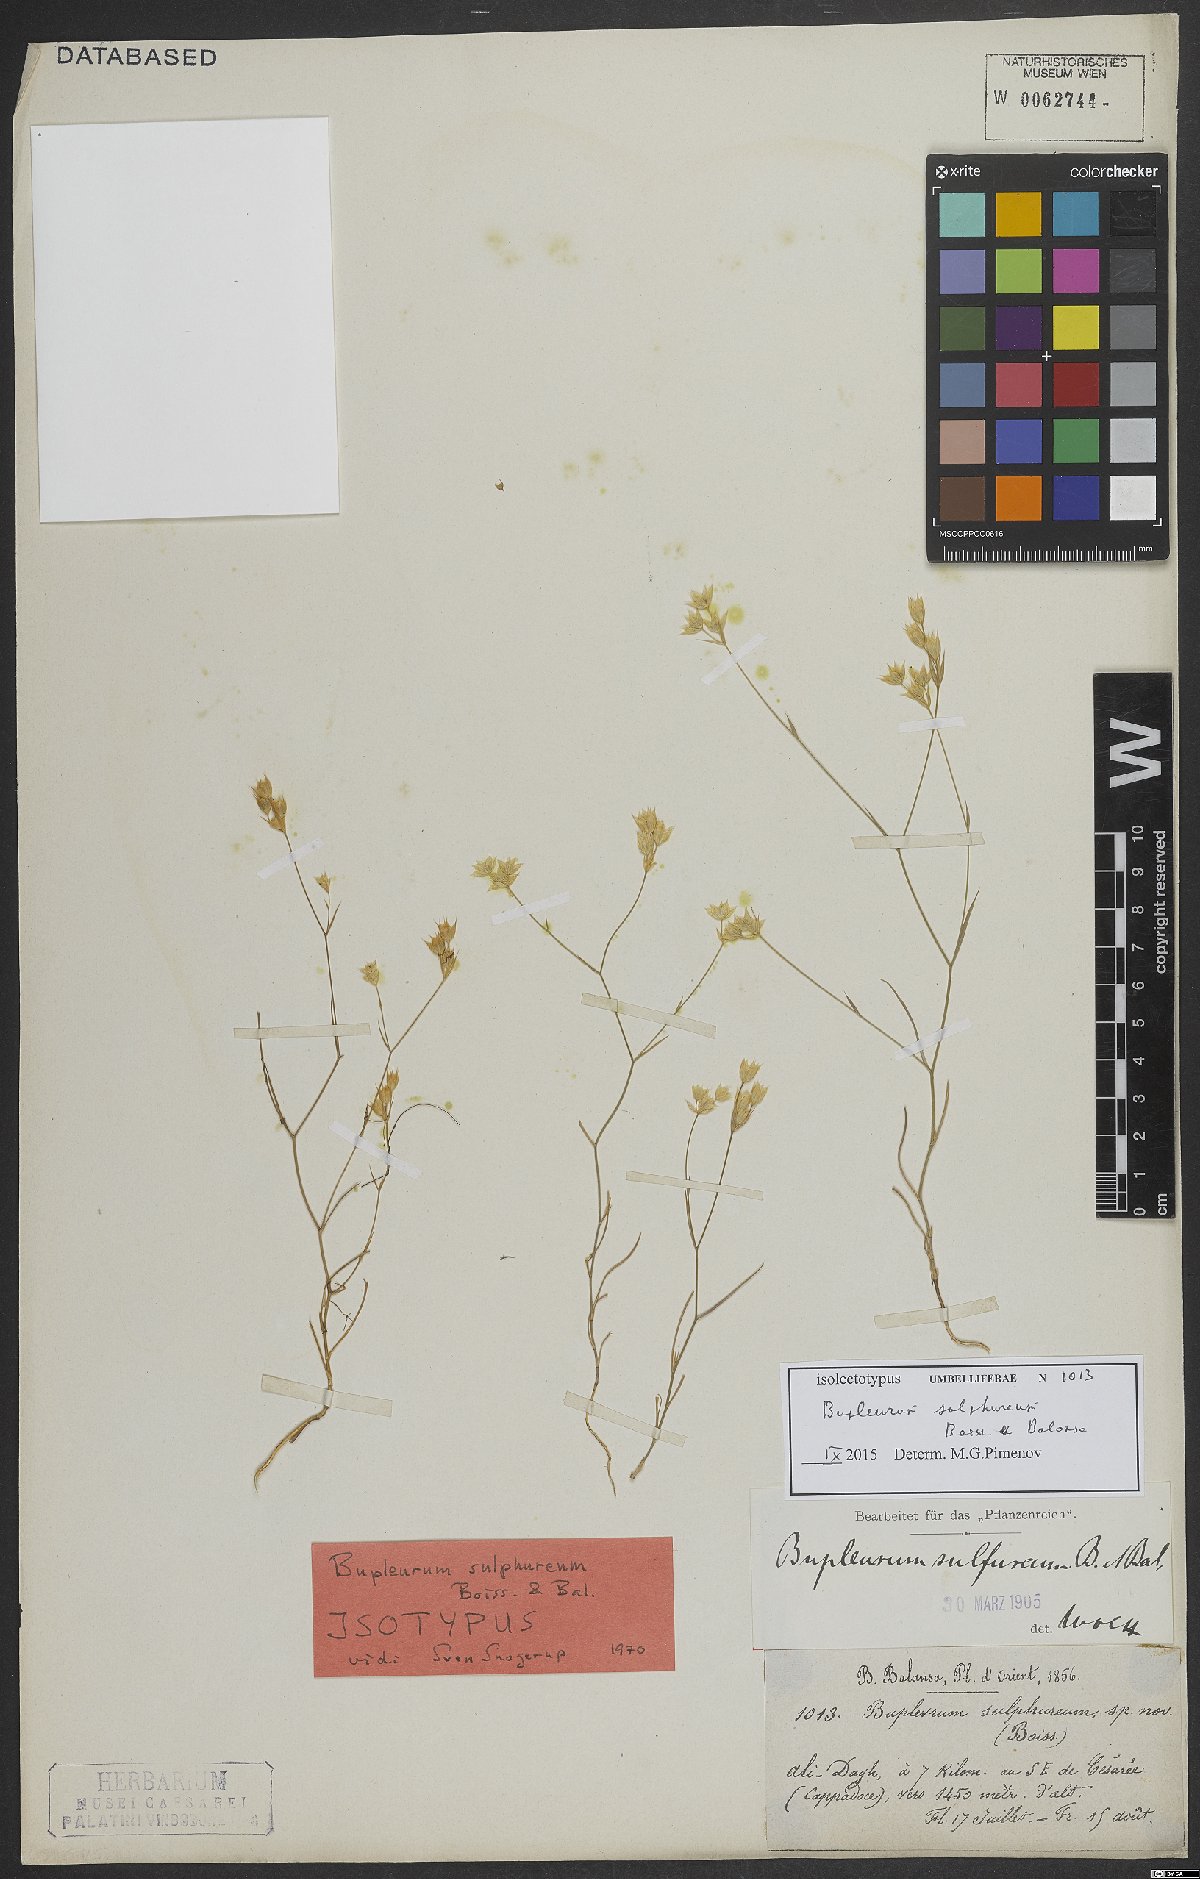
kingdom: Plantae
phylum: Tracheophyta
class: Magnoliopsida
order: Apiales
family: Apiaceae
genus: Bupleurum
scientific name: Bupleurum sulphureum
